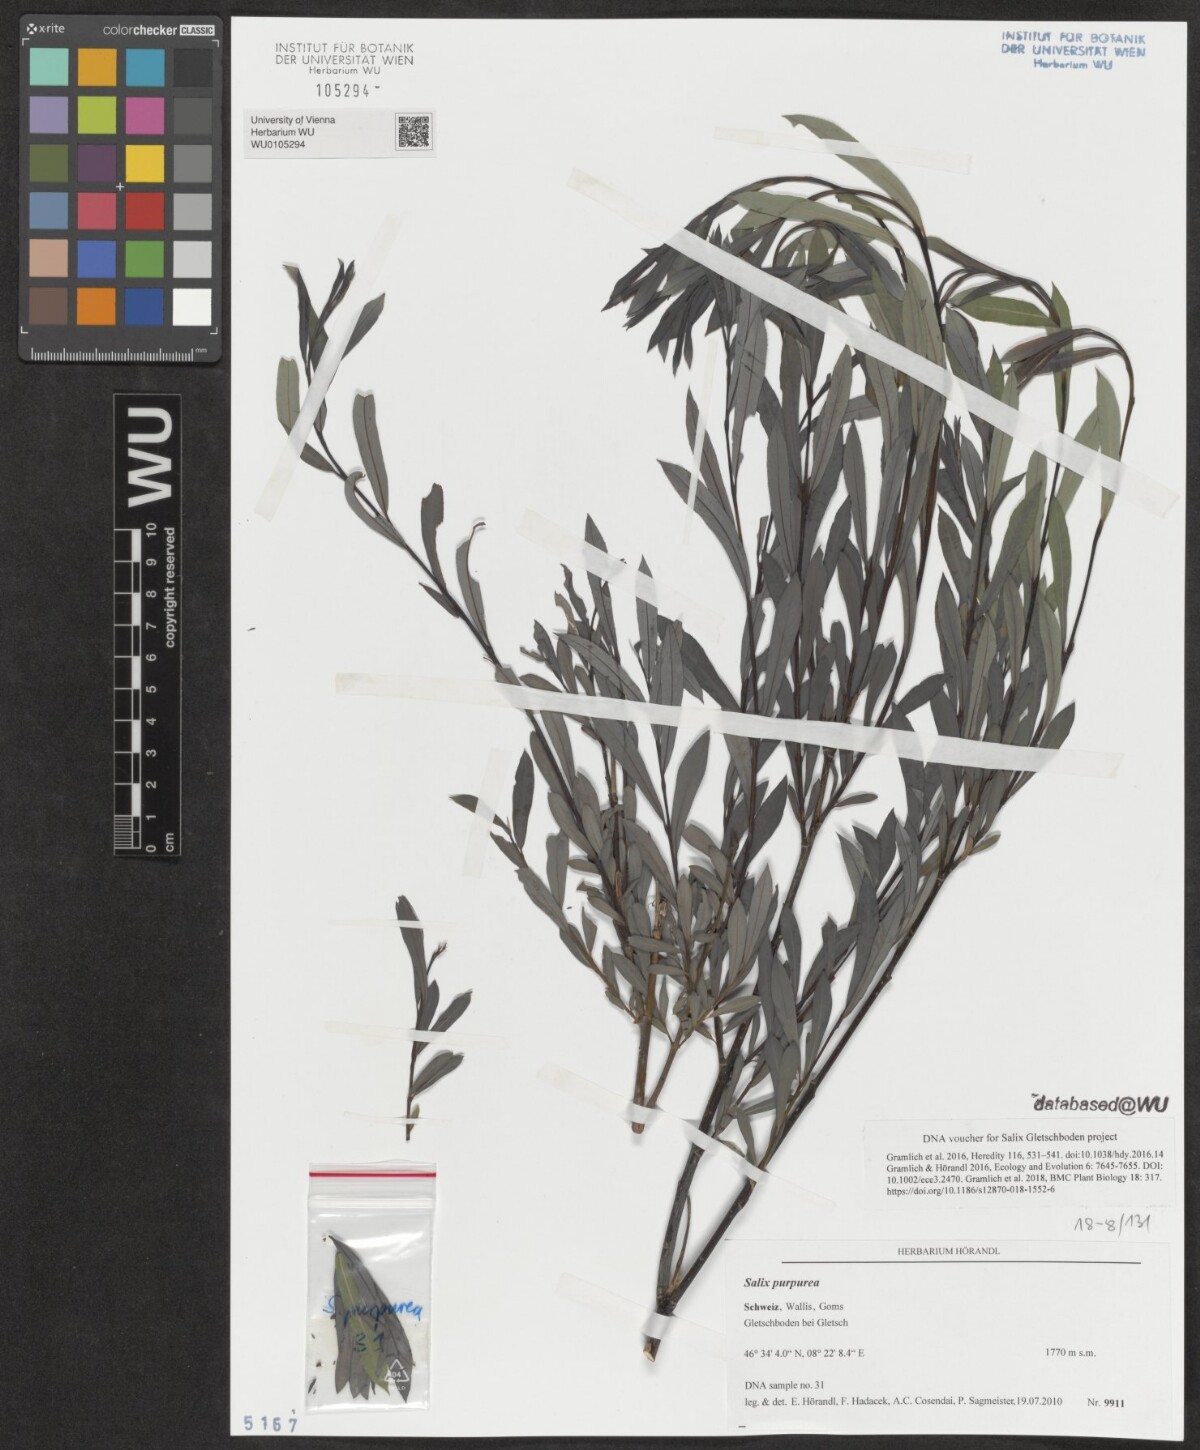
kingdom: Plantae
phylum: Tracheophyta
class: Magnoliopsida
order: Malpighiales
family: Salicaceae
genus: Salix
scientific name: Salix purpurea
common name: Purple willow
